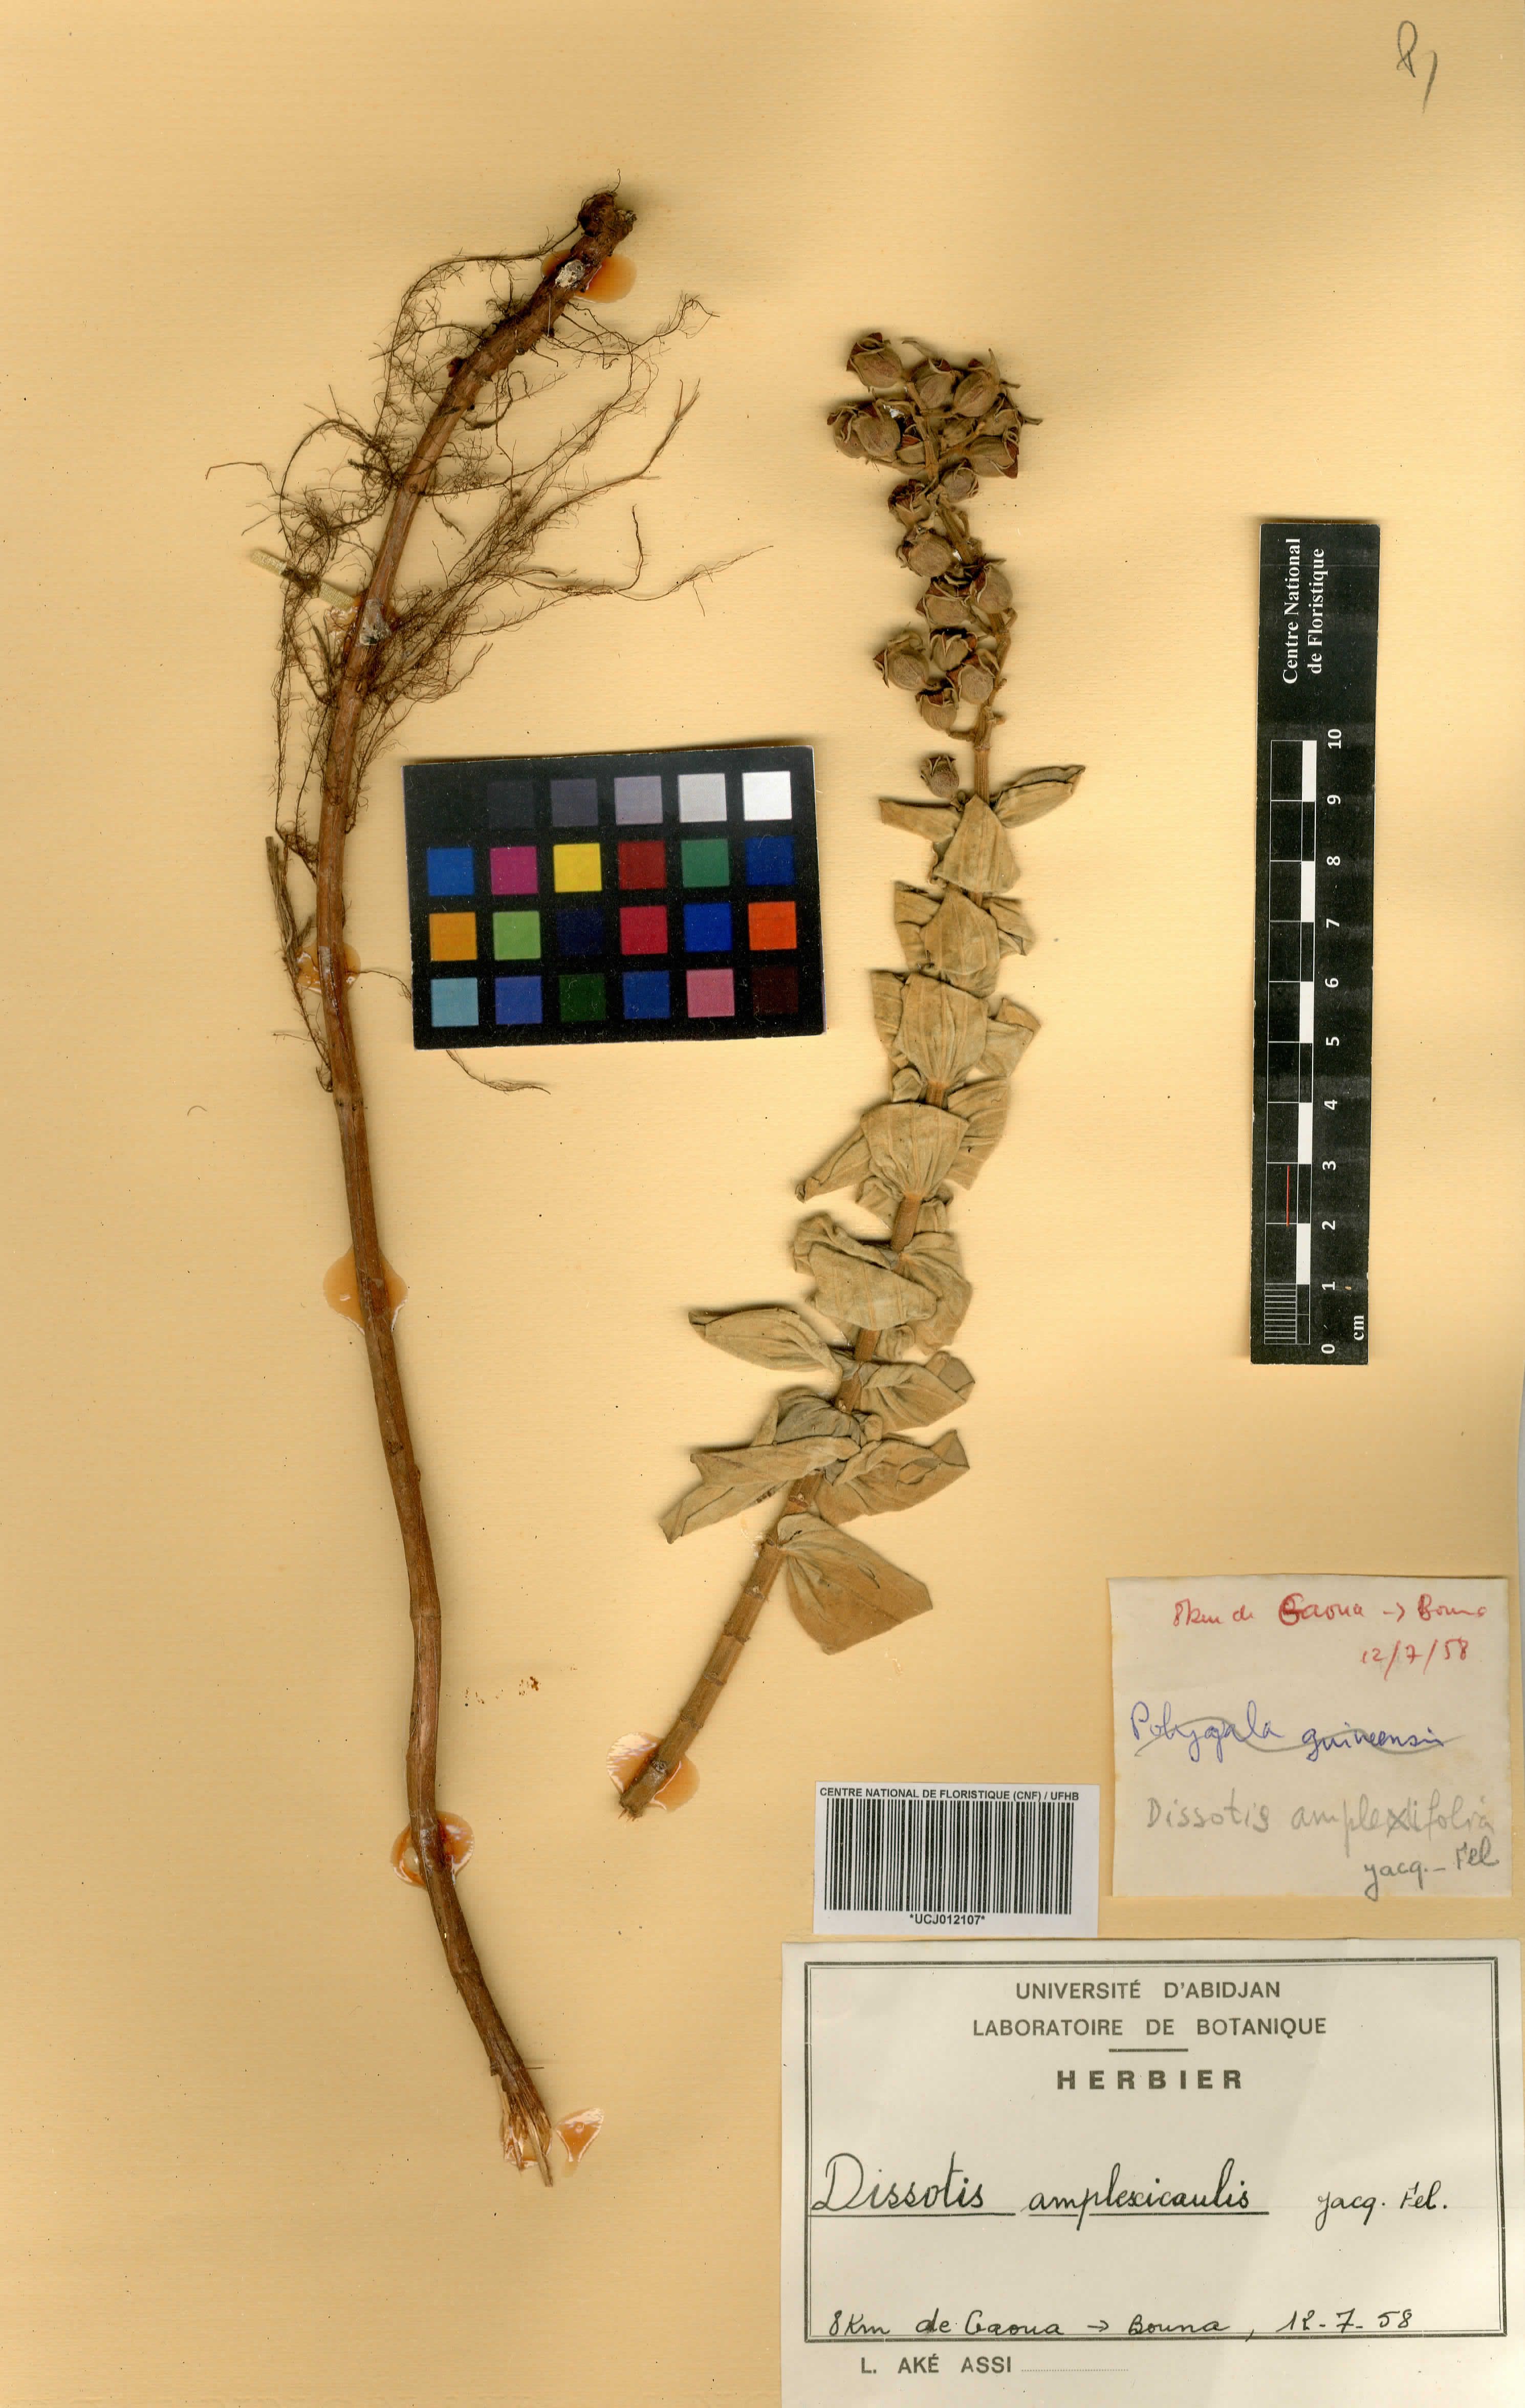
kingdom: Plantae
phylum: Tracheophyta
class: Magnoliopsida
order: Myrtales
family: Melastomataceae
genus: Argyrella
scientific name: Argyrella amplexicaulis
